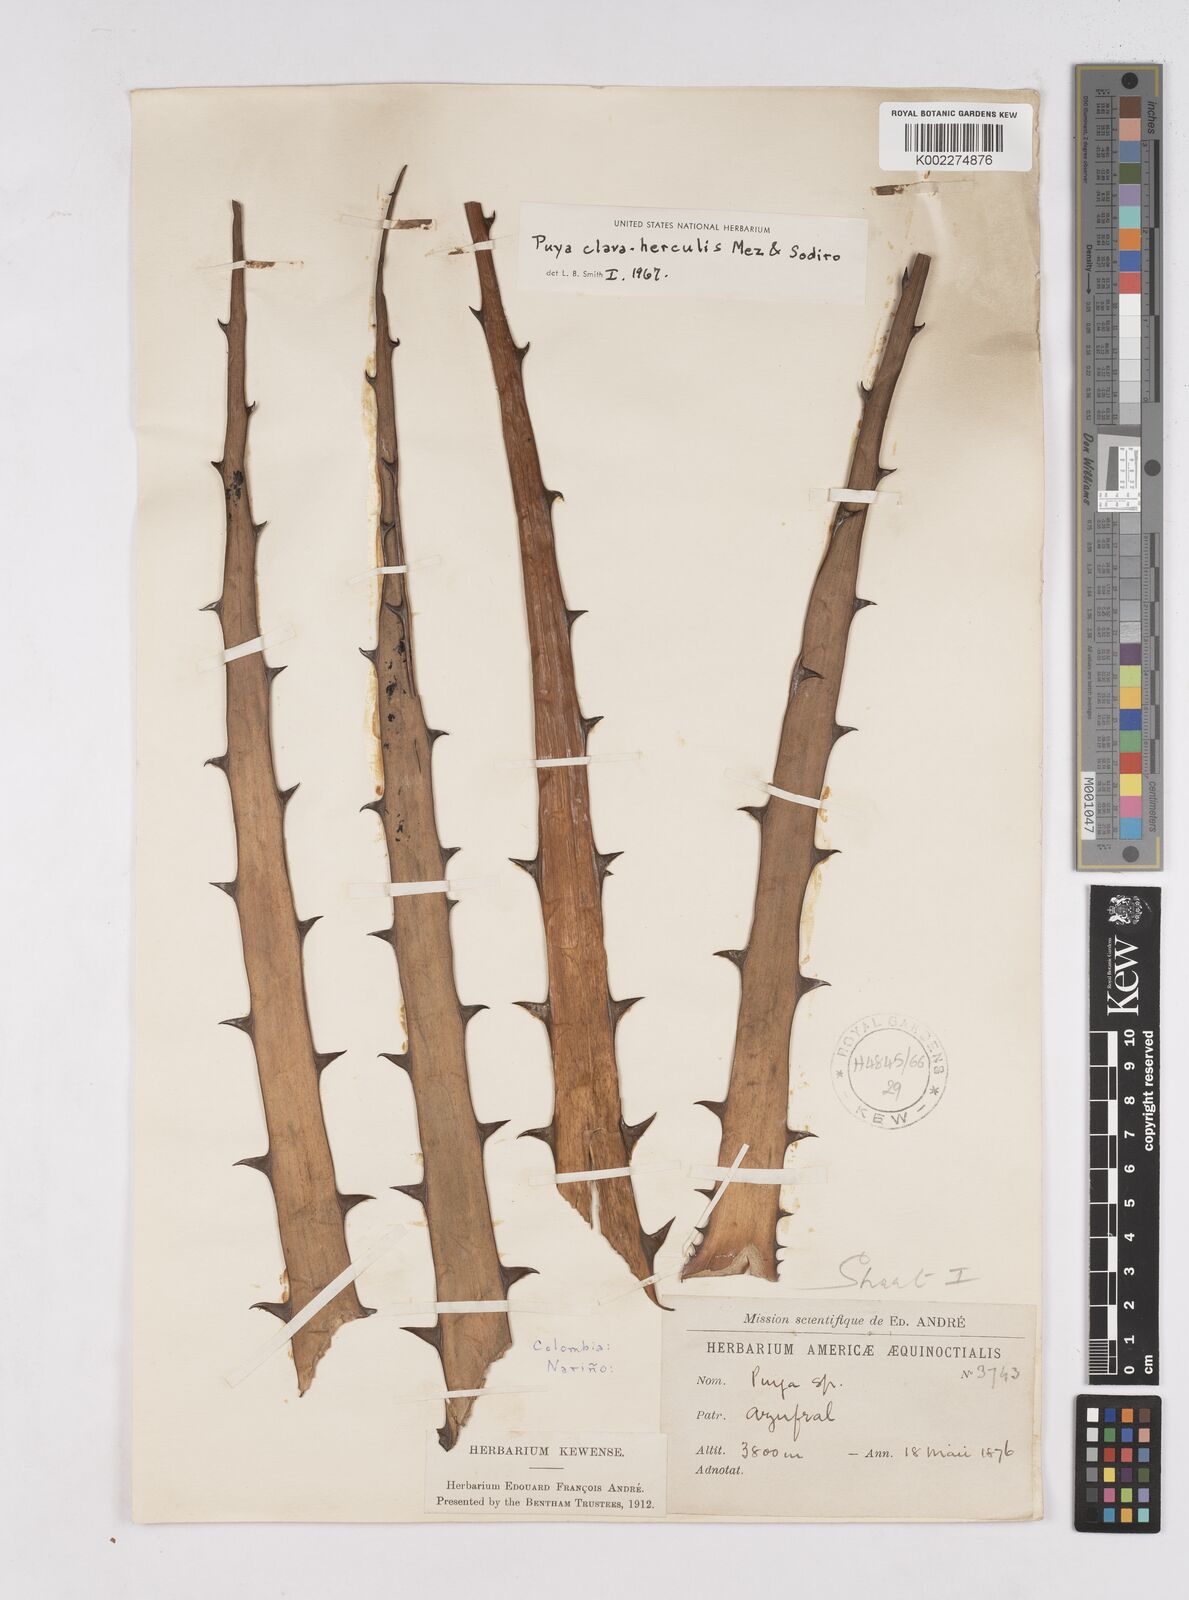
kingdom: Plantae
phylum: Tracheophyta
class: Liliopsida
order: Poales
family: Bromeliaceae
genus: Puya
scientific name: Puya clava-herculis
